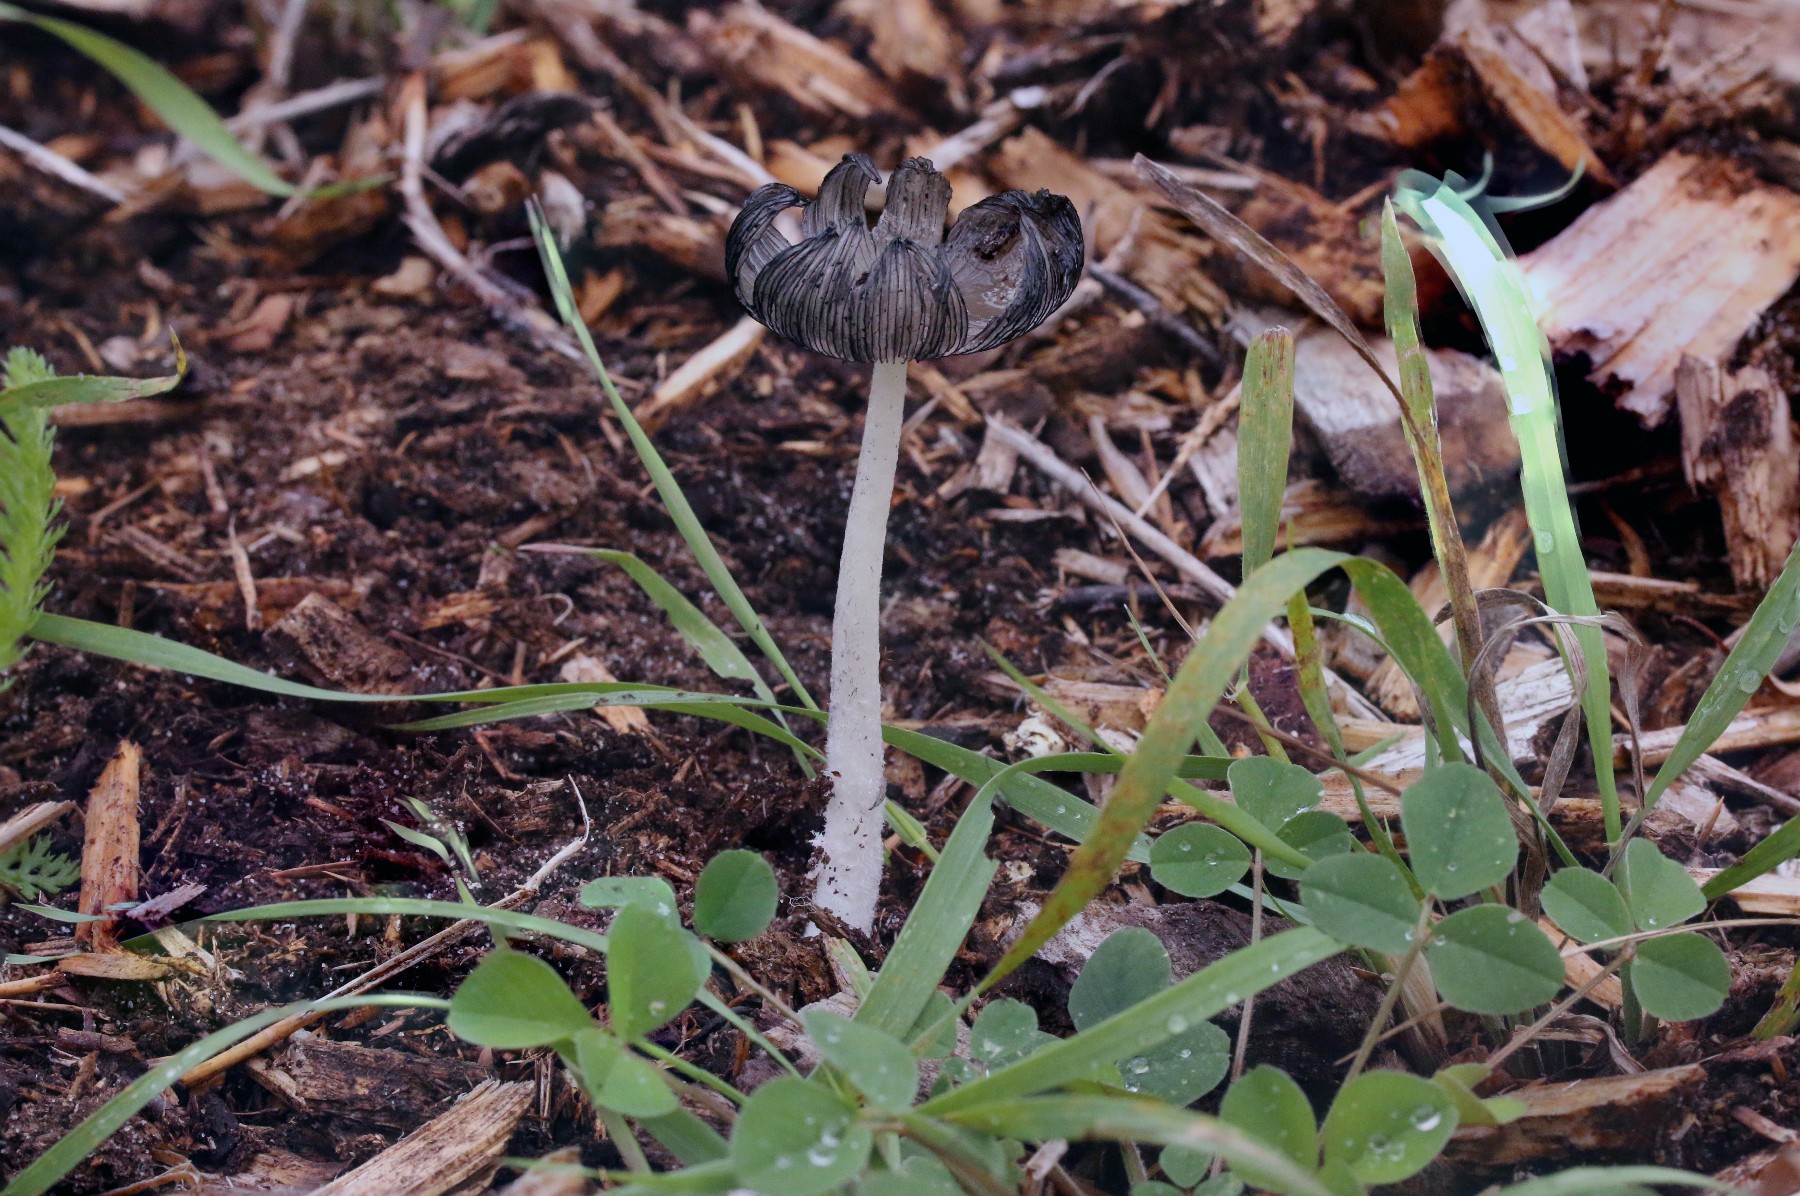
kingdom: Fungi
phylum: Basidiomycota
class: Agaricomycetes
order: Agaricales
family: Psathyrellaceae
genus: Coprinopsis
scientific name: Coprinopsis lagopus
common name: dunstokket blækhat
